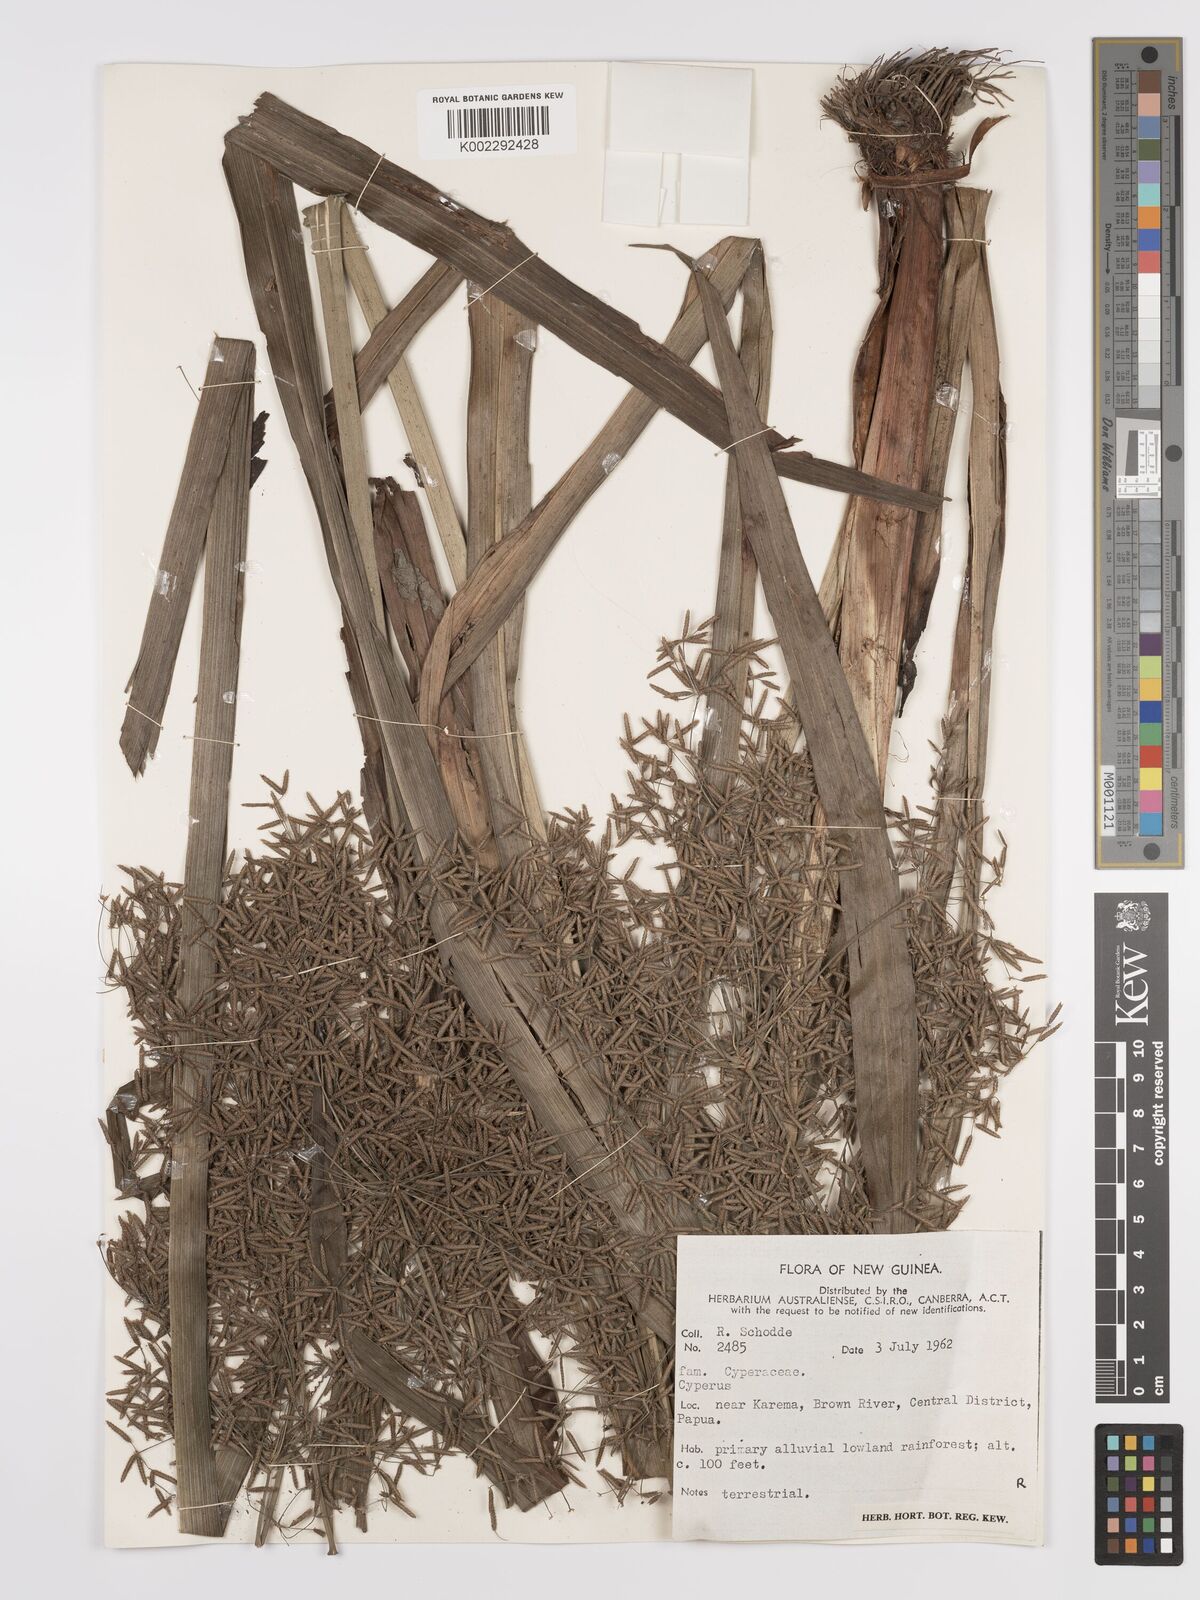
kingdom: Plantae
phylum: Tracheophyta
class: Liliopsida
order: Poales
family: Cyperaceae
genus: Cyperus
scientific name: Cyperus diffusus
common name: Dwarf umbrella grass
